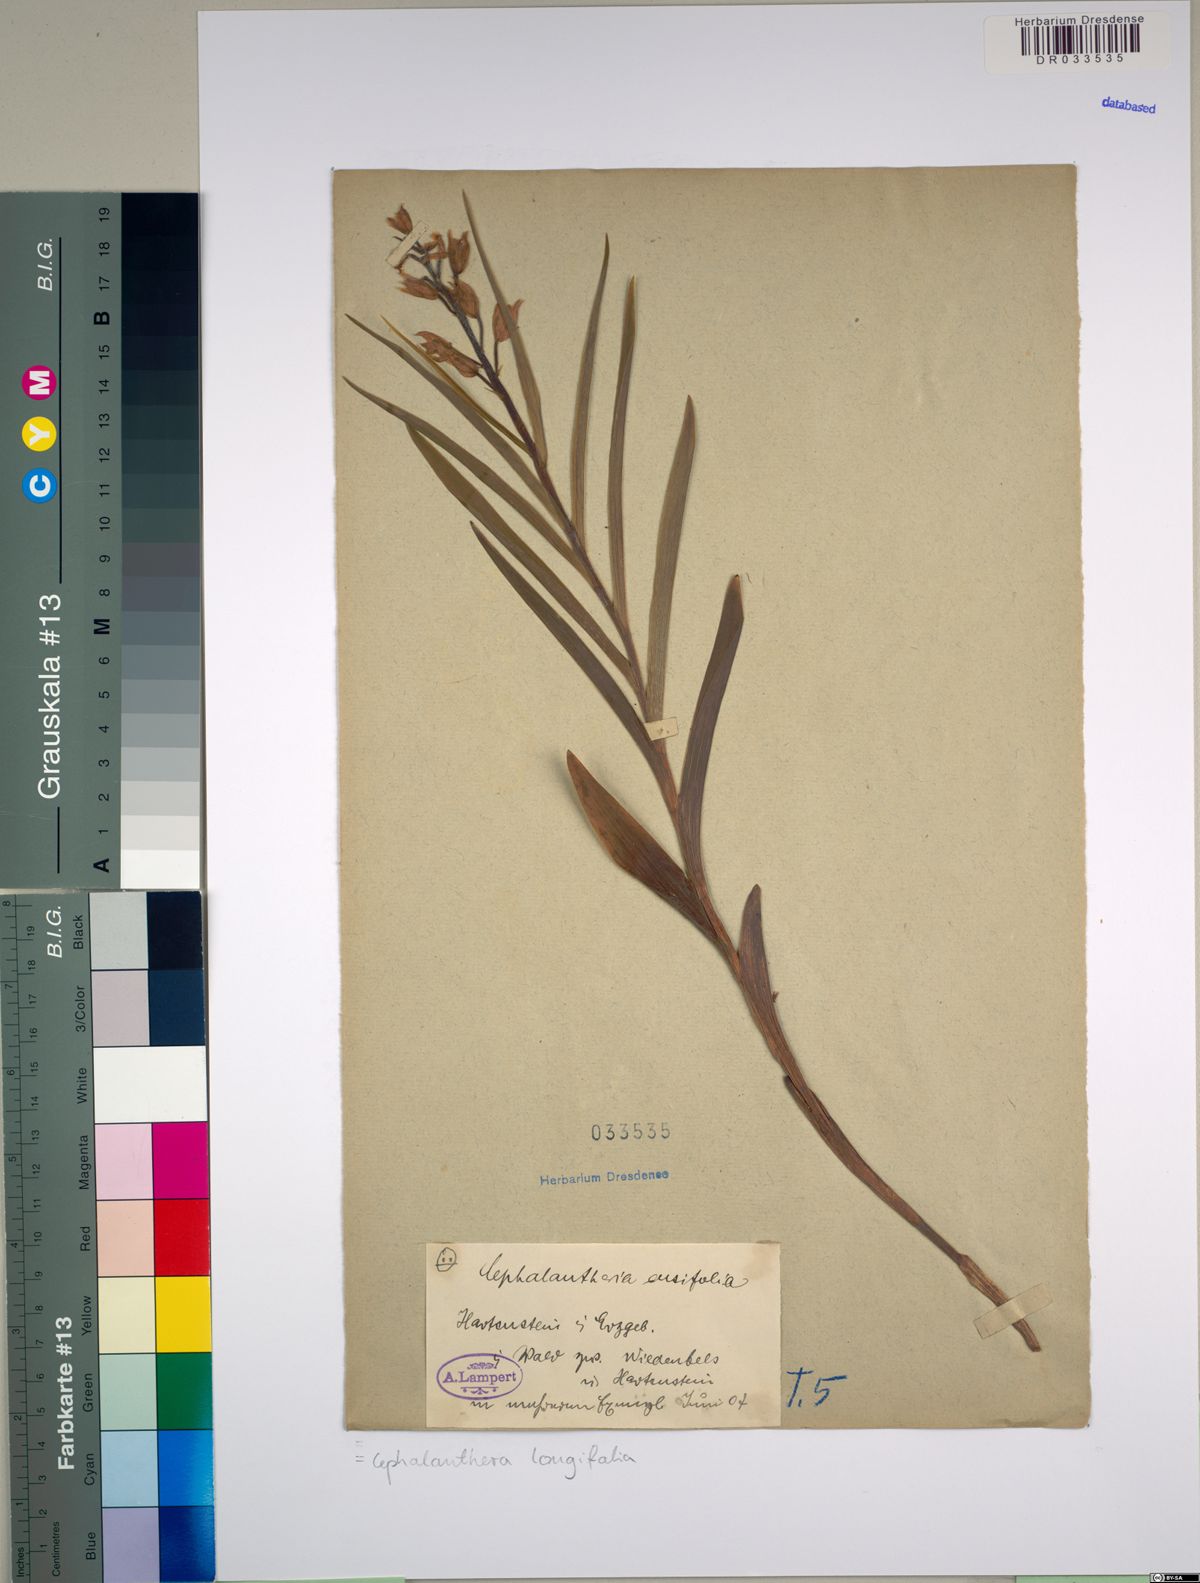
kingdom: Plantae
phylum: Tracheophyta
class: Liliopsida
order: Asparagales
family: Orchidaceae
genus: Cephalanthera
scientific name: Cephalanthera longifolia
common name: Narrow-leaved helleborine
